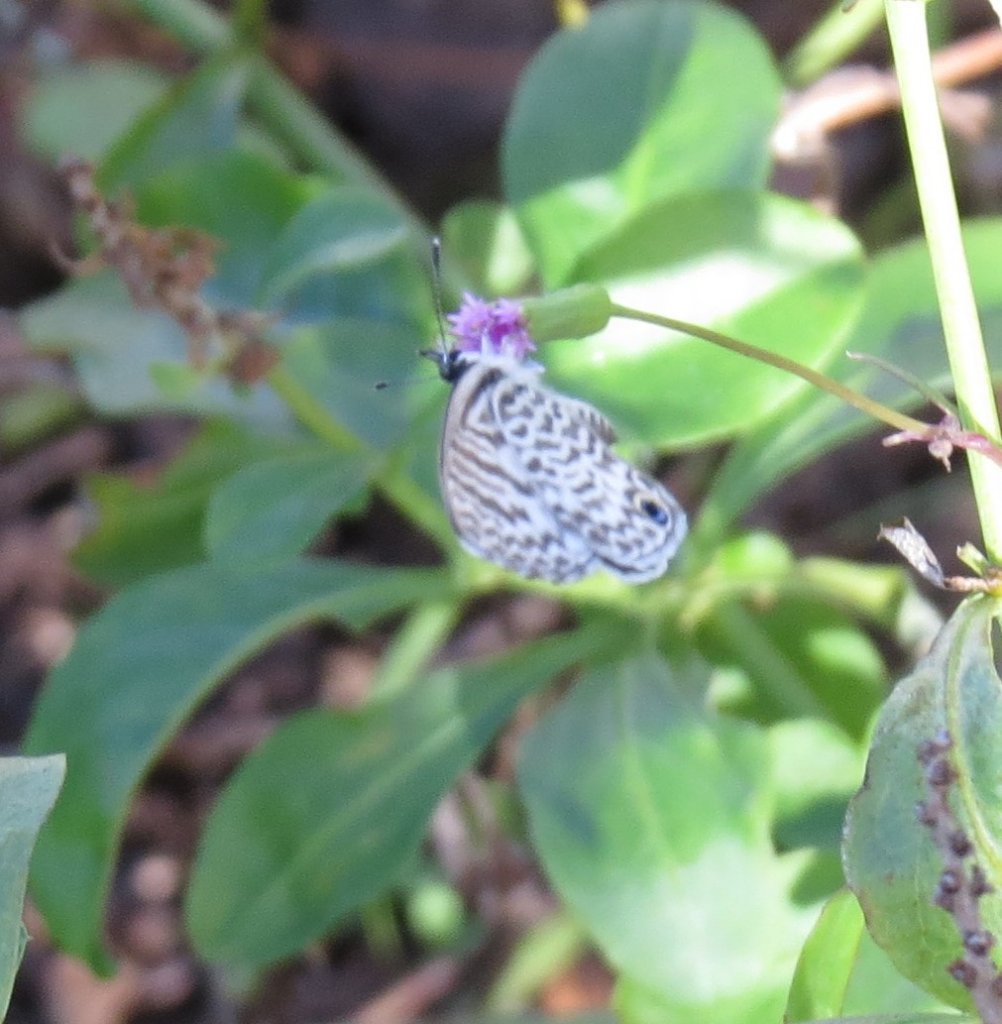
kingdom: Animalia
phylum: Arthropoda
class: Insecta
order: Lepidoptera
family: Lycaenidae
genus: Leptotes
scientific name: Leptotes cassius
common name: Cassius Blue
